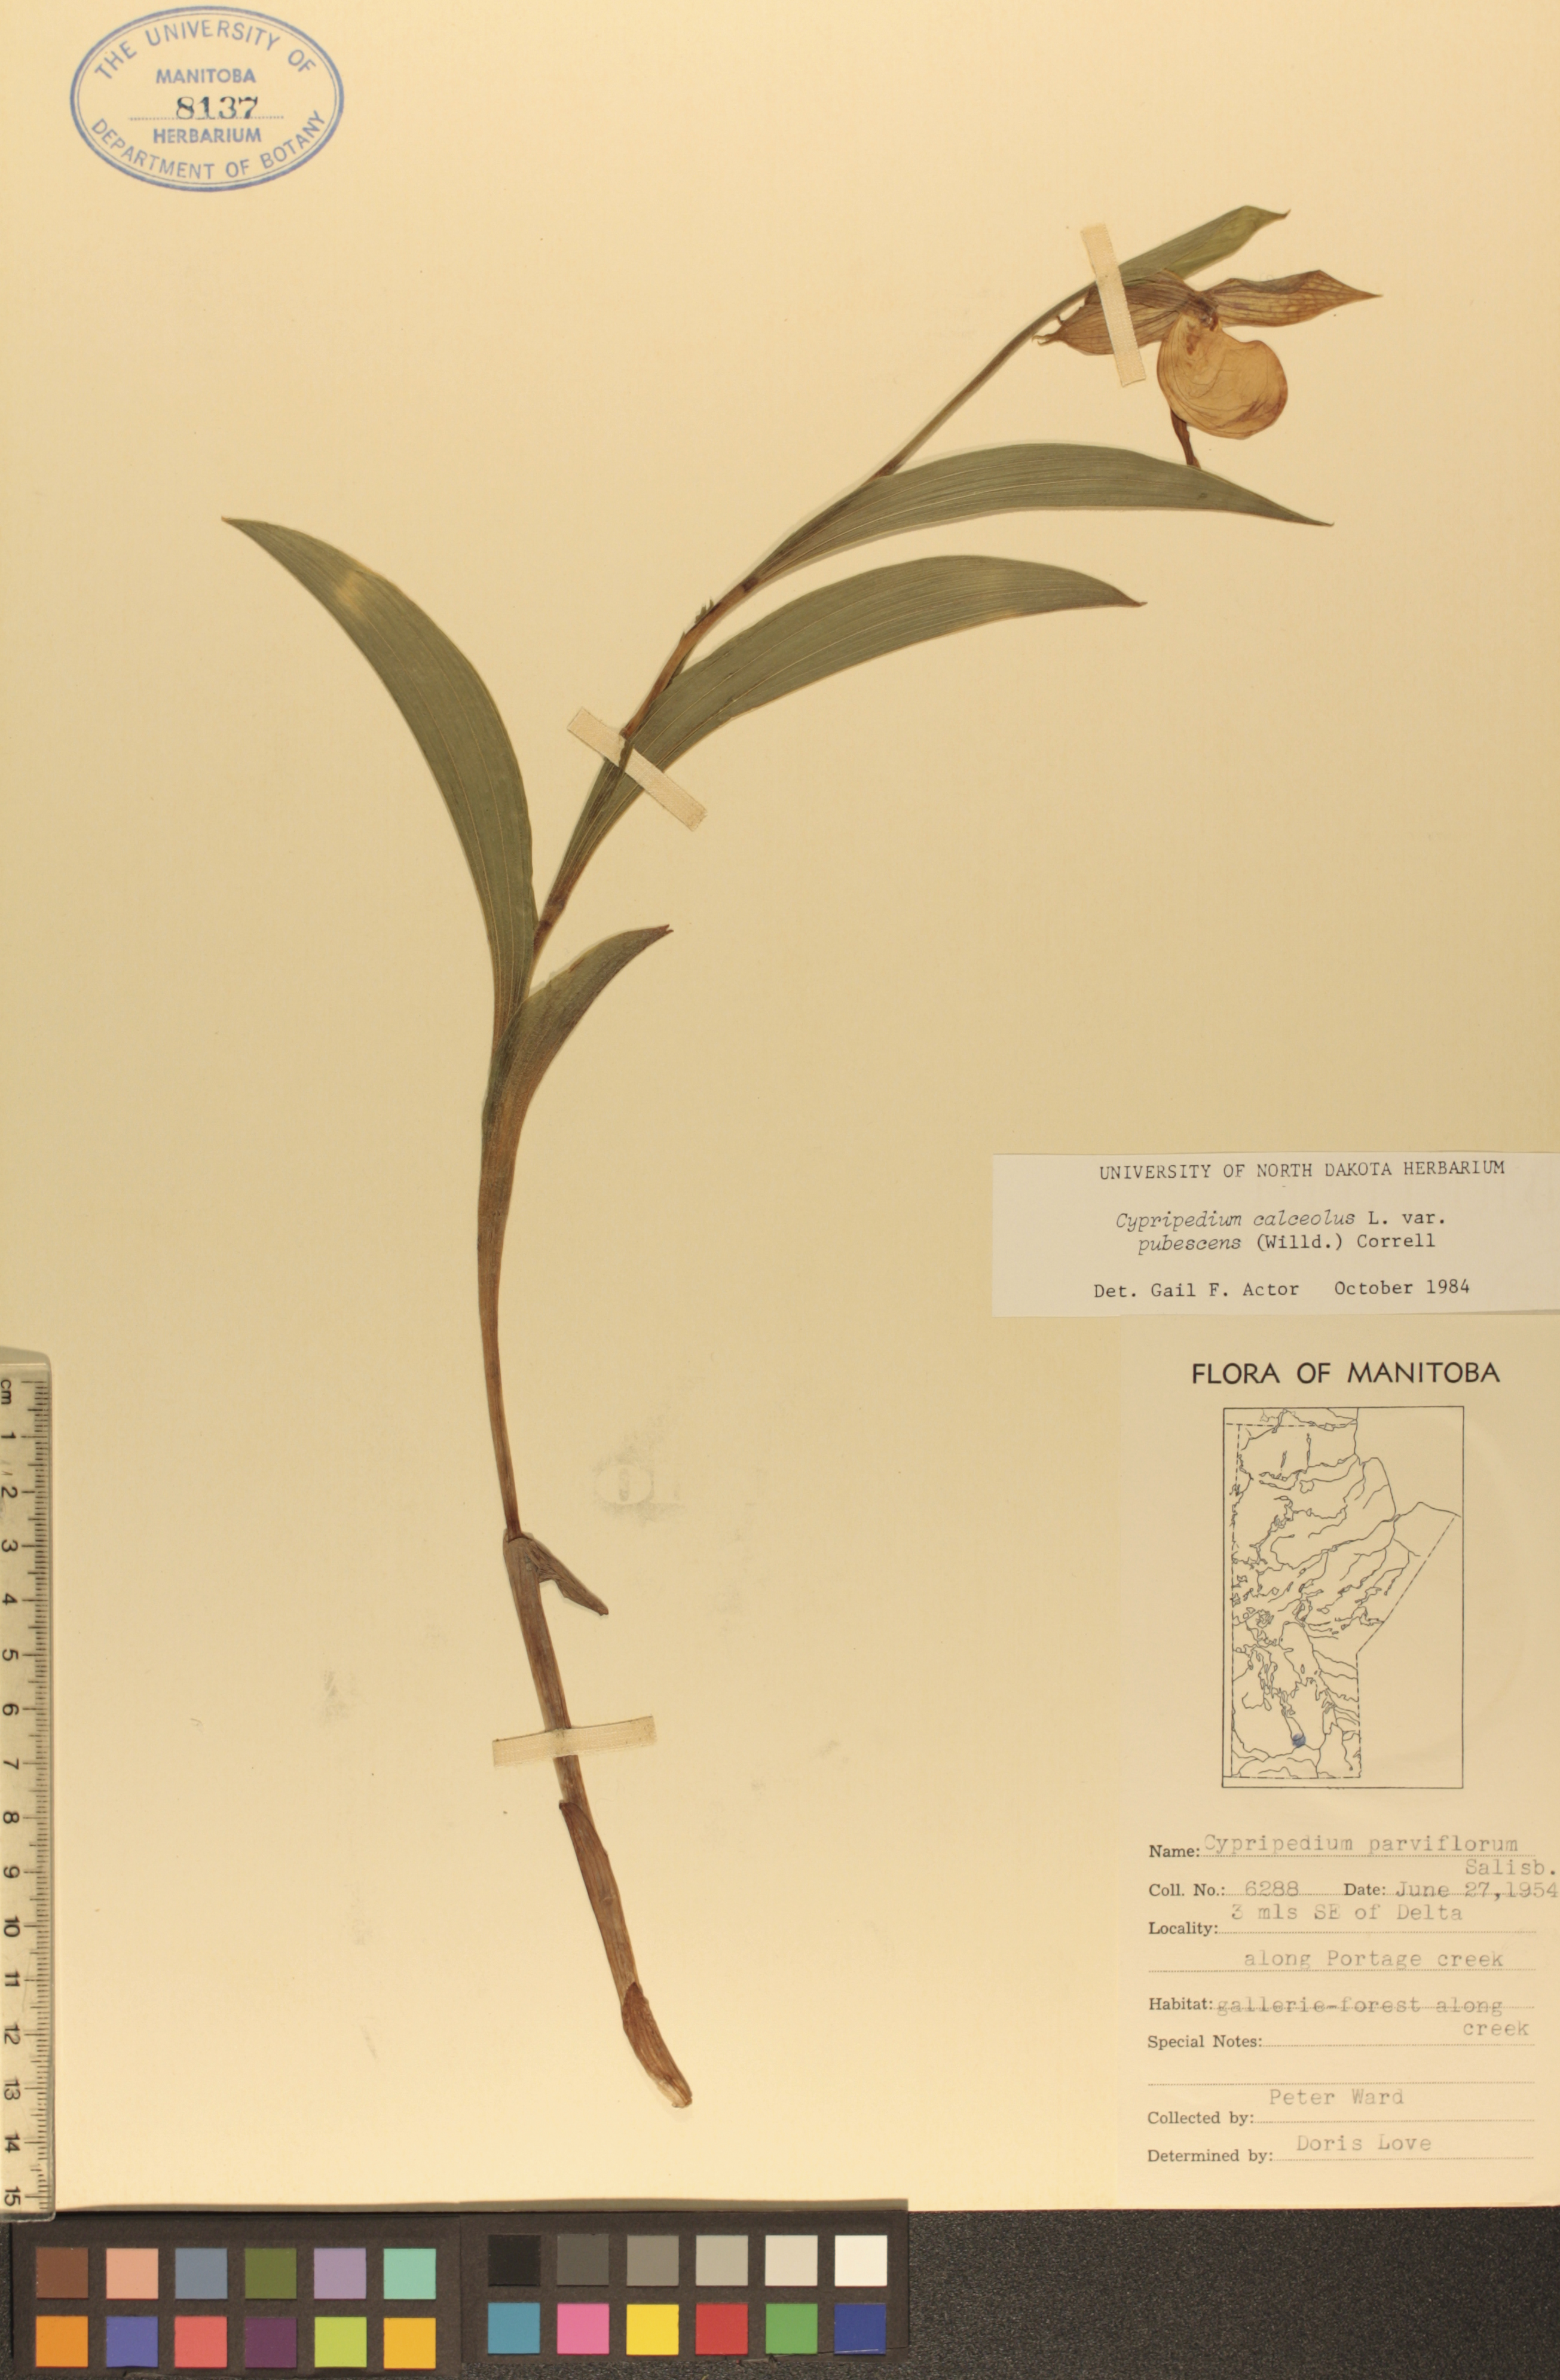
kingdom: Plantae
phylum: Tracheophyta
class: Liliopsida
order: Asparagales
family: Orchidaceae
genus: Cypripedium
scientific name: Cypripedium parviflorum
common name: American yellow lady's-slipper
